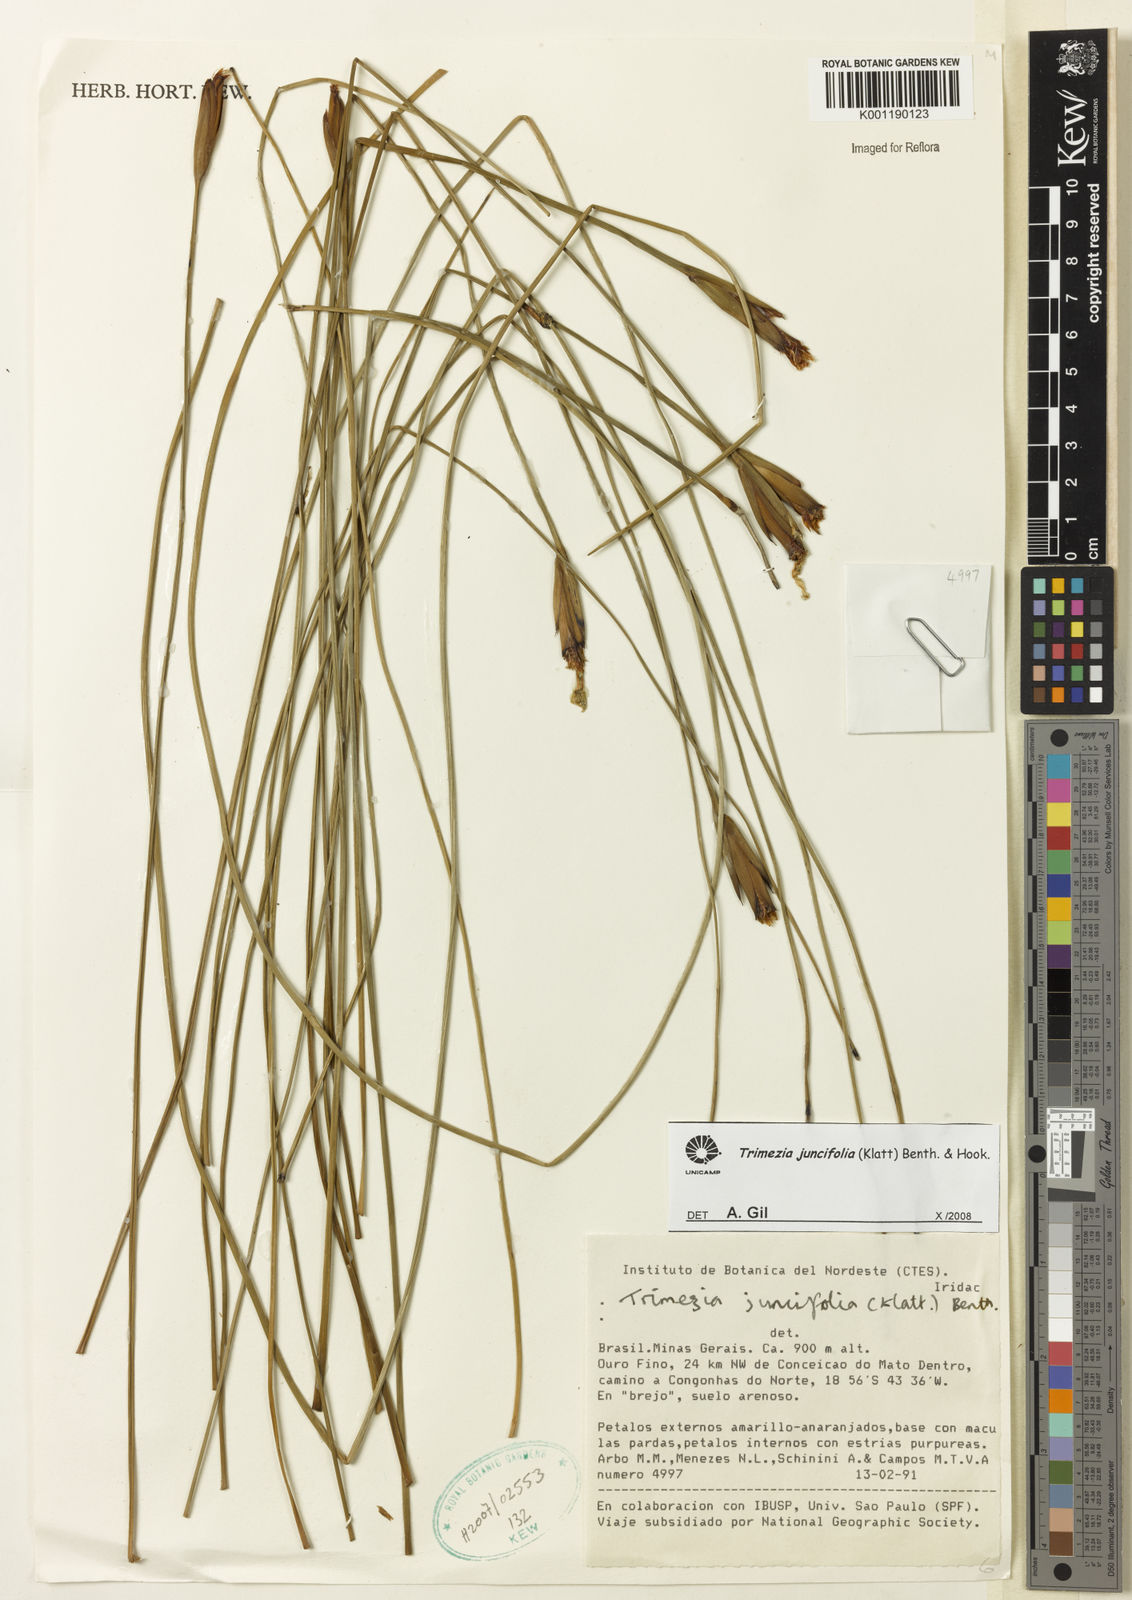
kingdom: Plantae
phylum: Tracheophyta
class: Liliopsida
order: Asparagales
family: Iridaceae
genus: Trimezia
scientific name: Trimezia juncifolia
